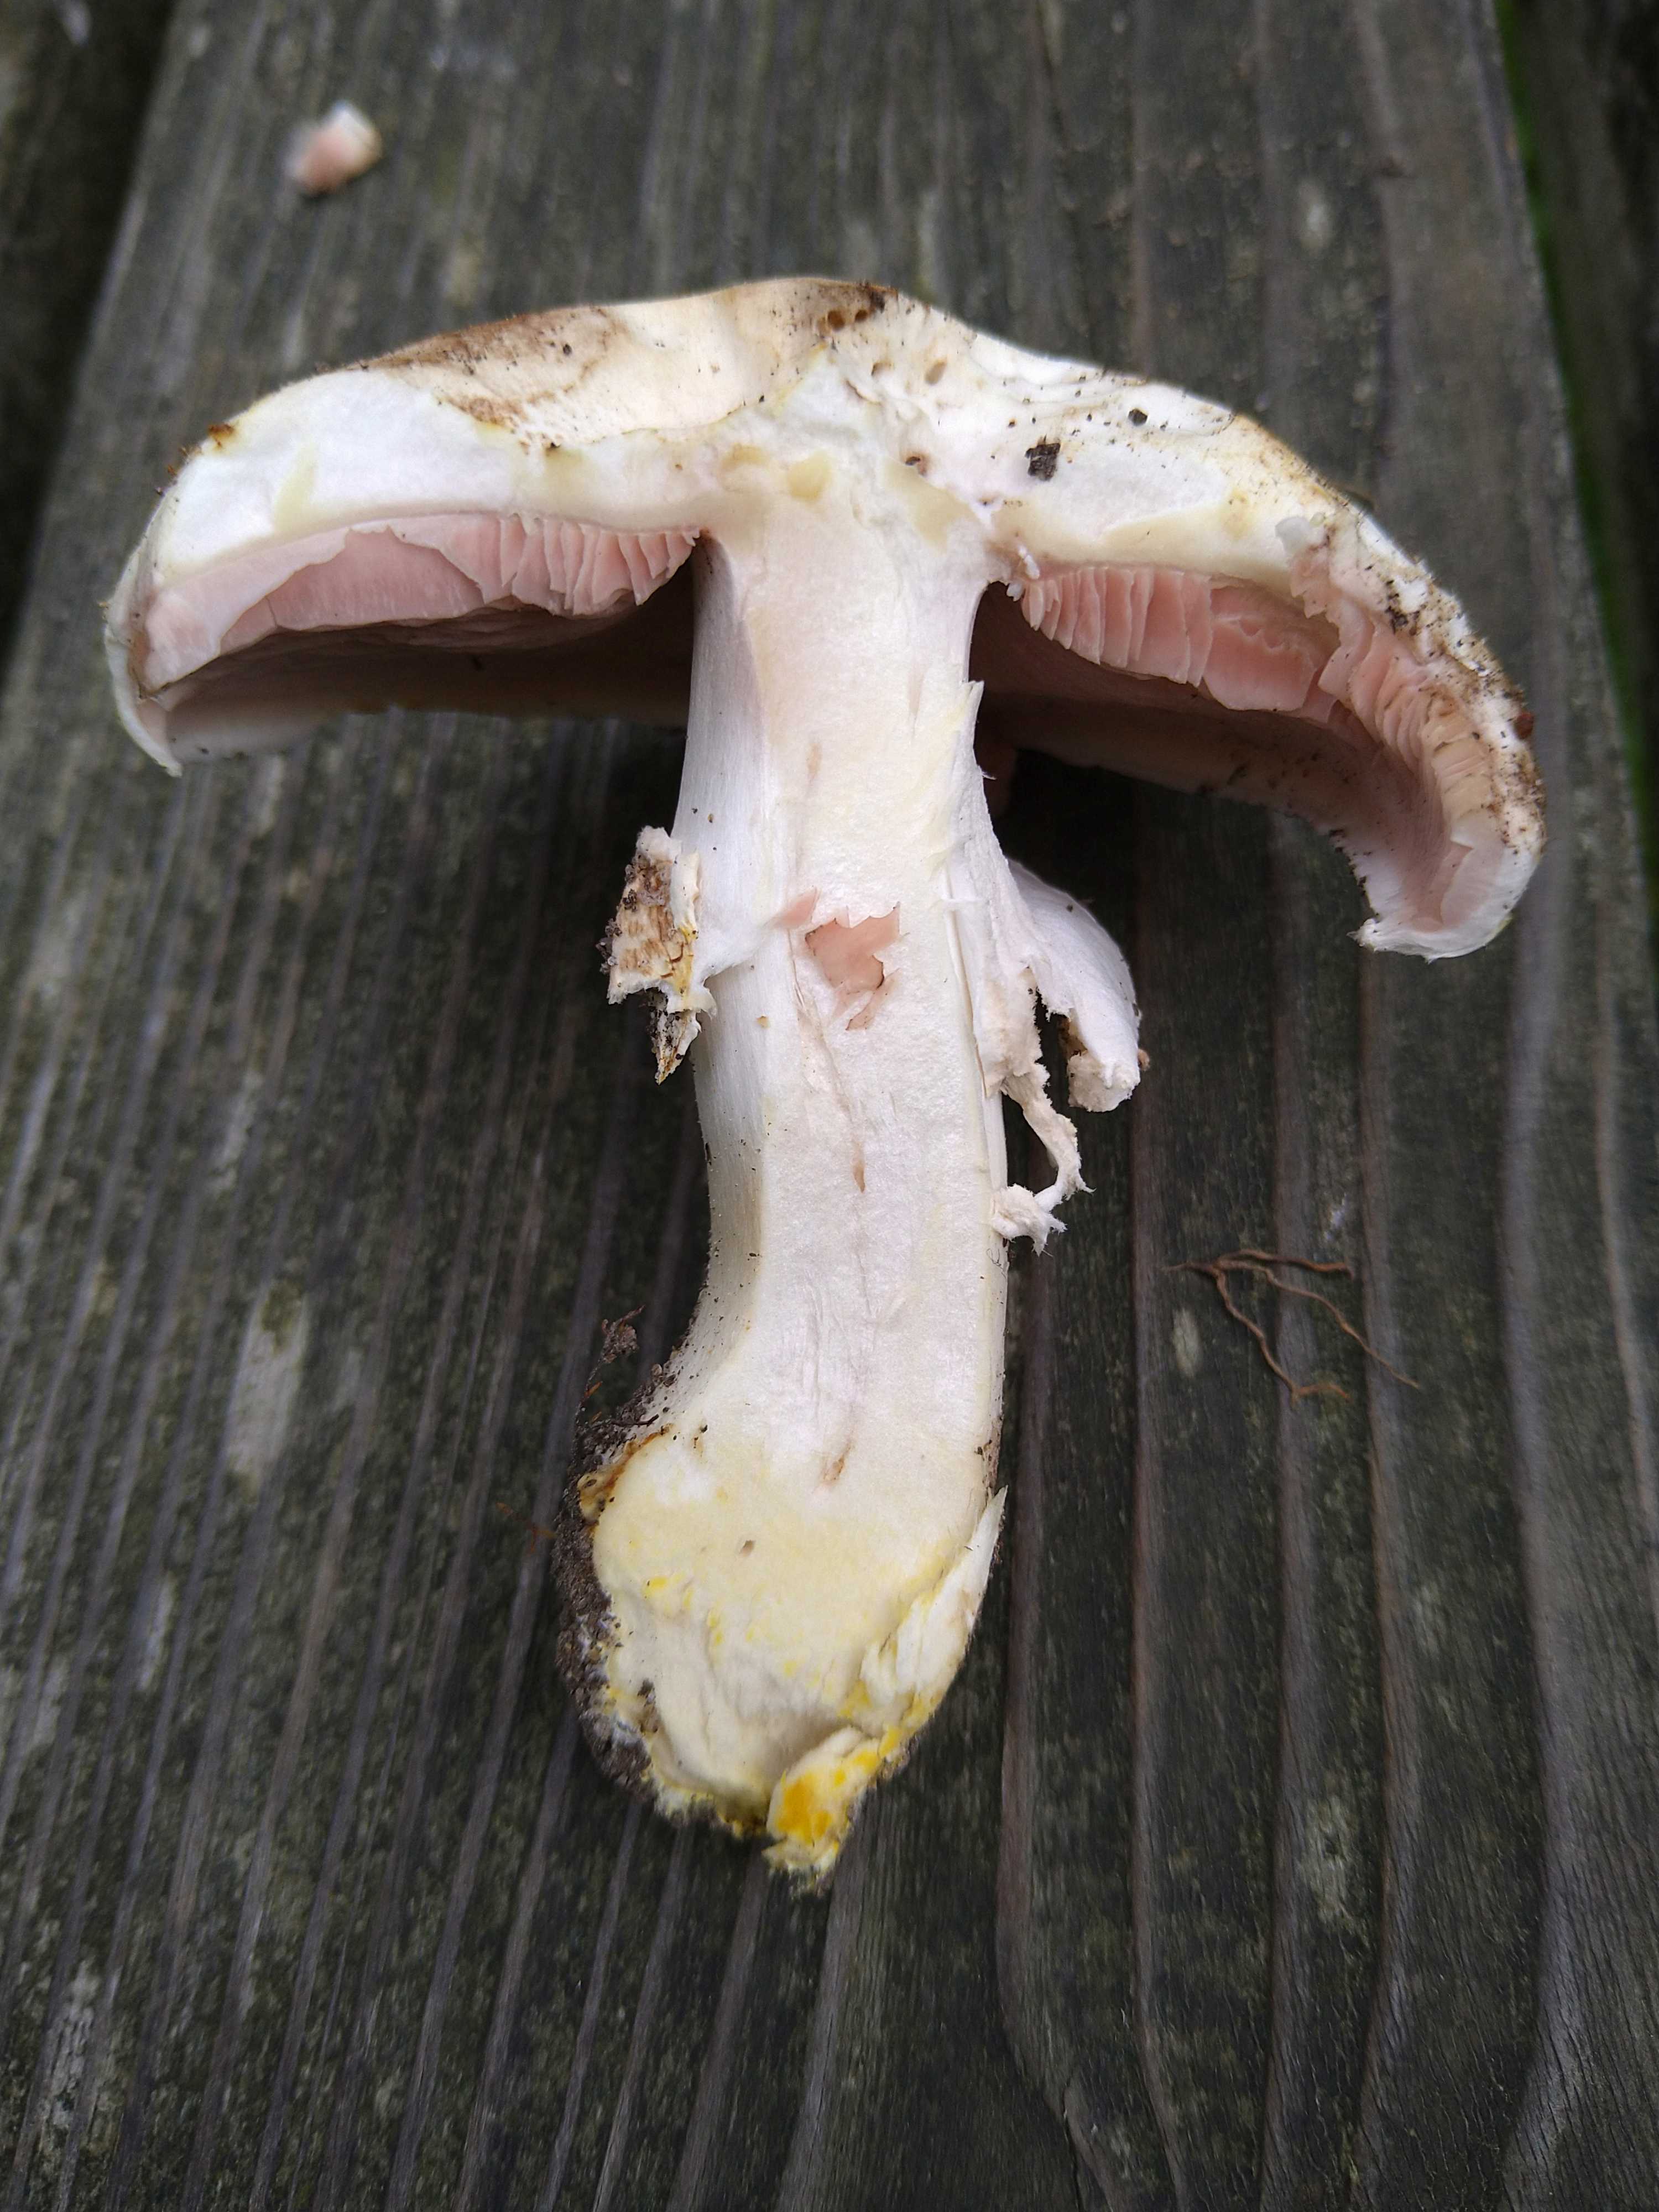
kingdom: Fungi
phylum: Basidiomycota
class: Agaricomycetes
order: Agaricales
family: Agaricaceae
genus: Agaricus
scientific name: Agaricus xanthodermus
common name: karbol-champignon
